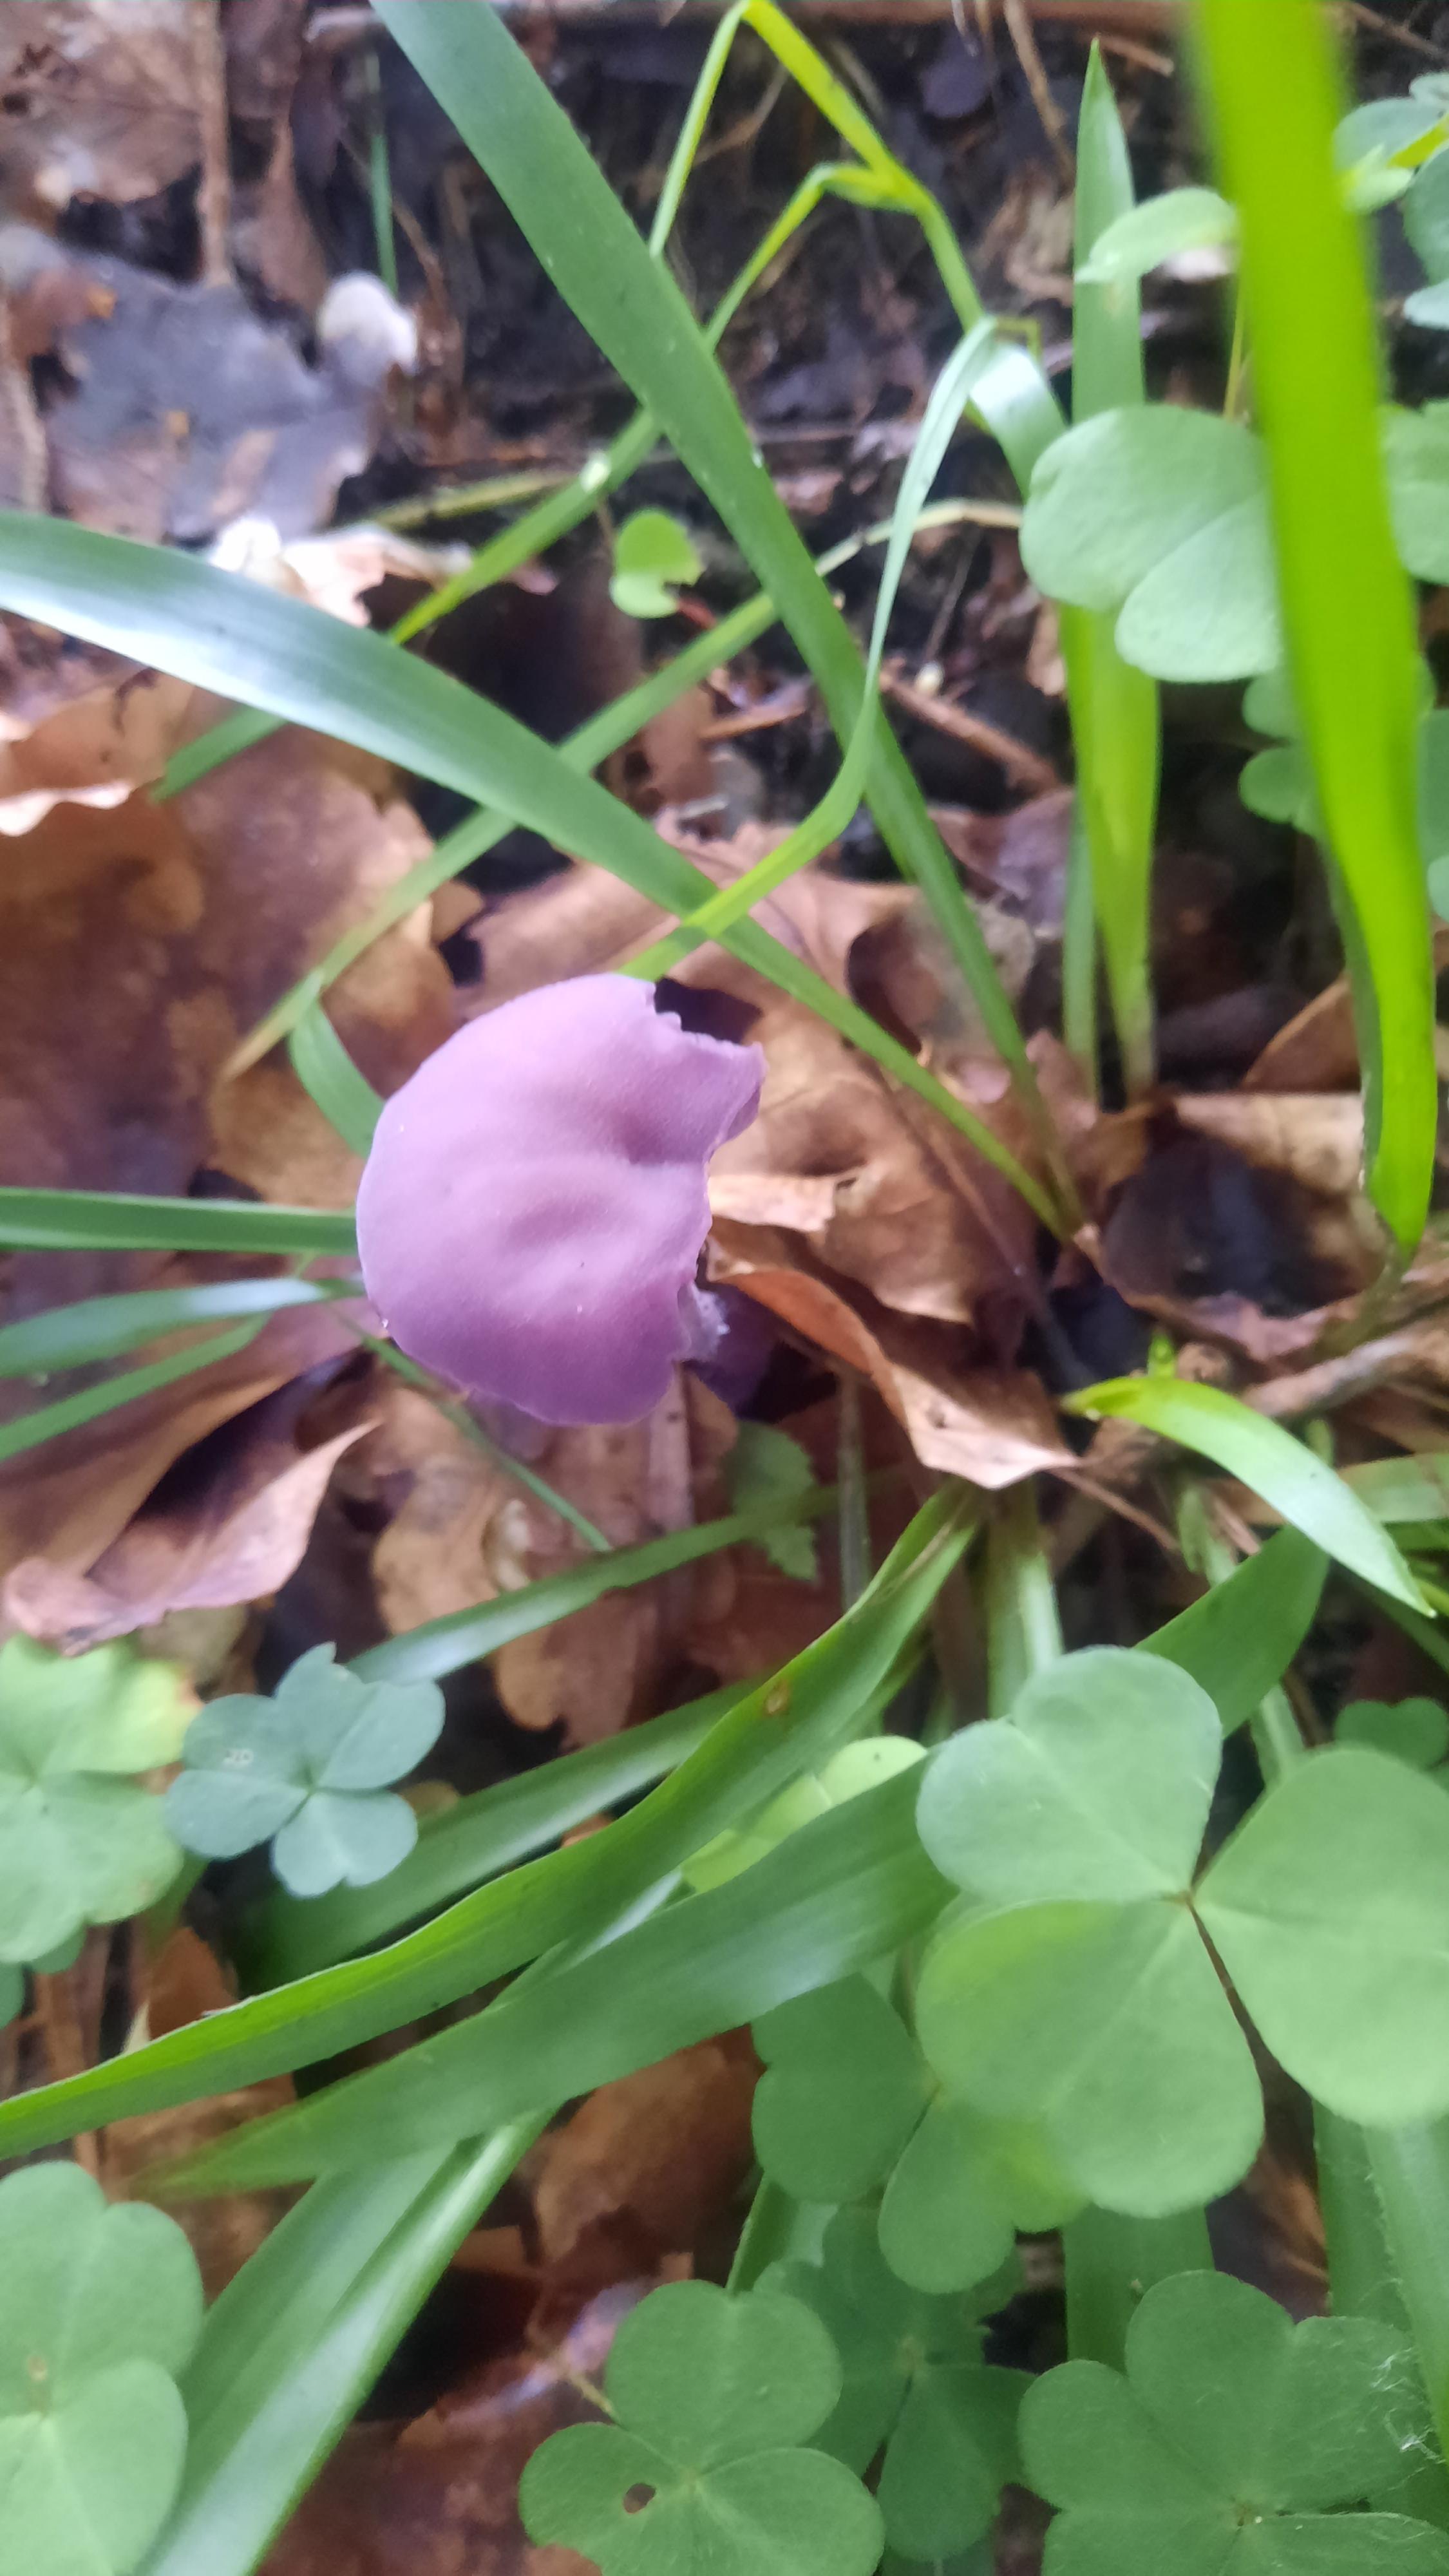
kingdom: Fungi
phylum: Basidiomycota
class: Agaricomycetes
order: Agaricales
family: Hydnangiaceae
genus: Laccaria
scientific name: Laccaria amethystina
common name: violet ametysthat
